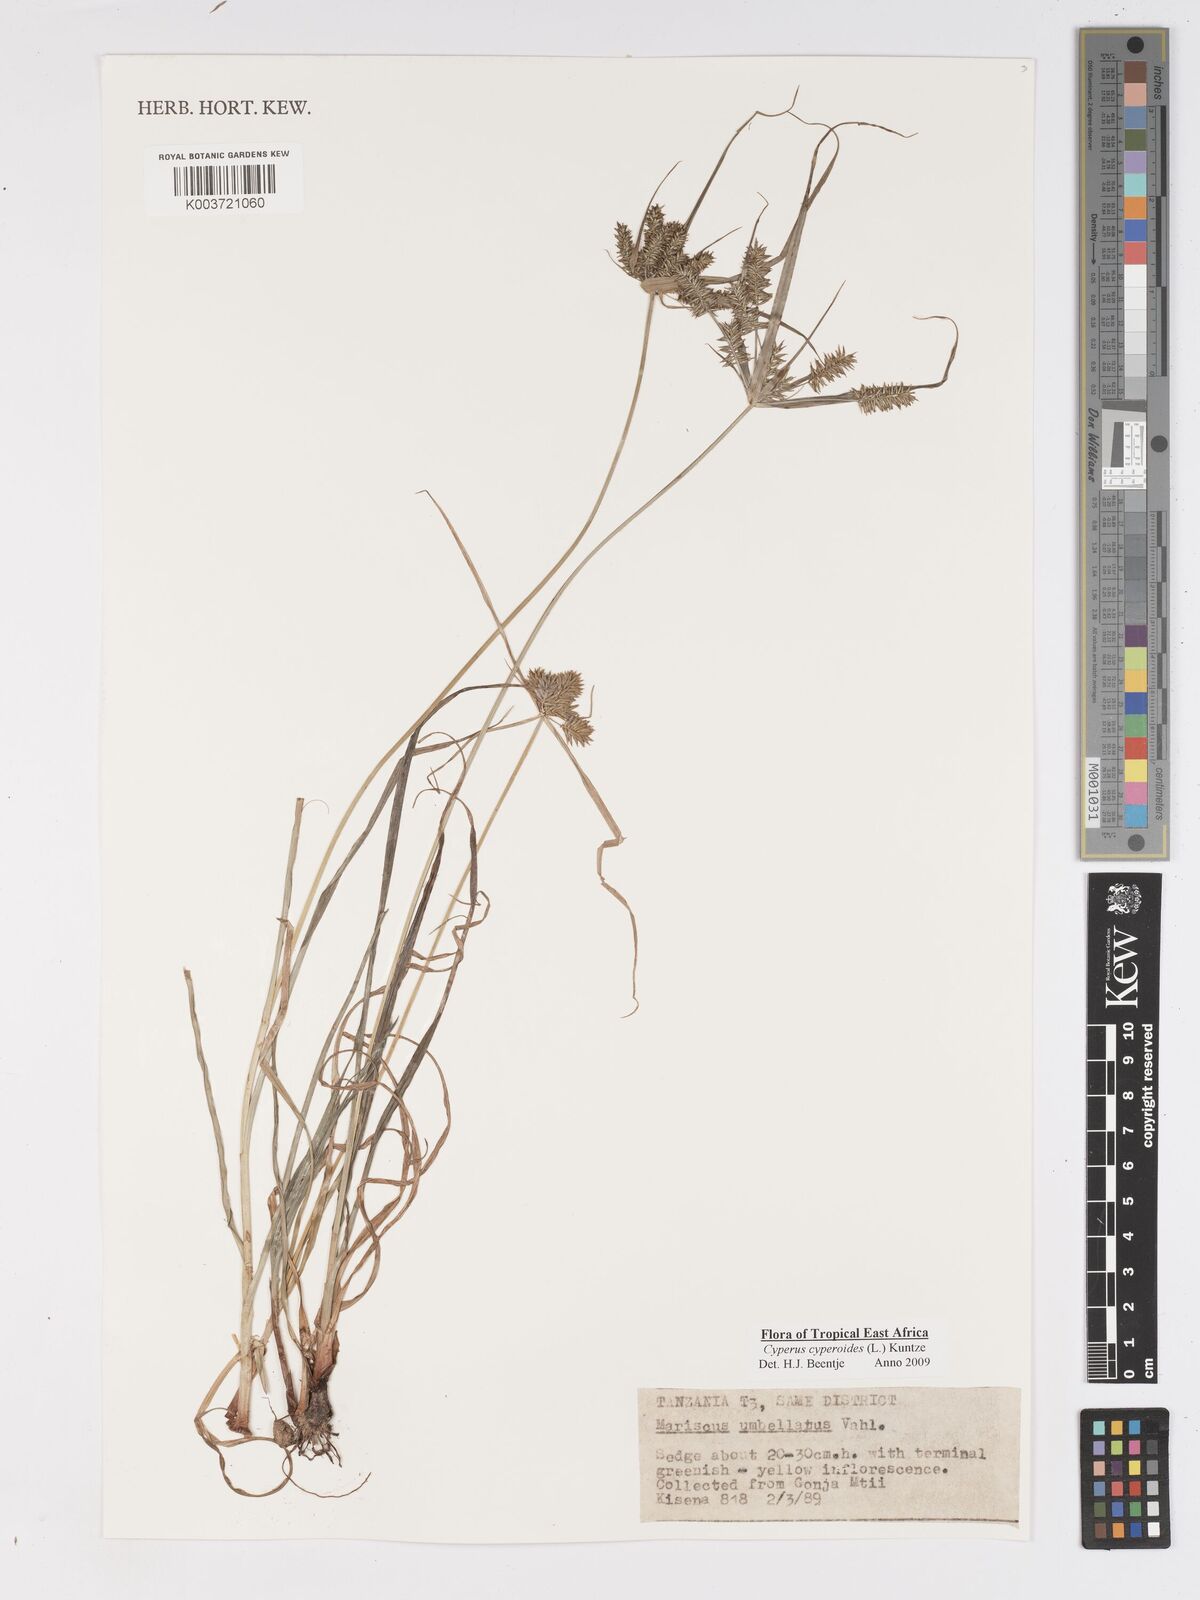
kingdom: Plantae
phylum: Tracheophyta
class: Liliopsida
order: Poales
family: Cyperaceae
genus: Cyperus
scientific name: Cyperus cyperoides
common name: Pacific island flat sedge
